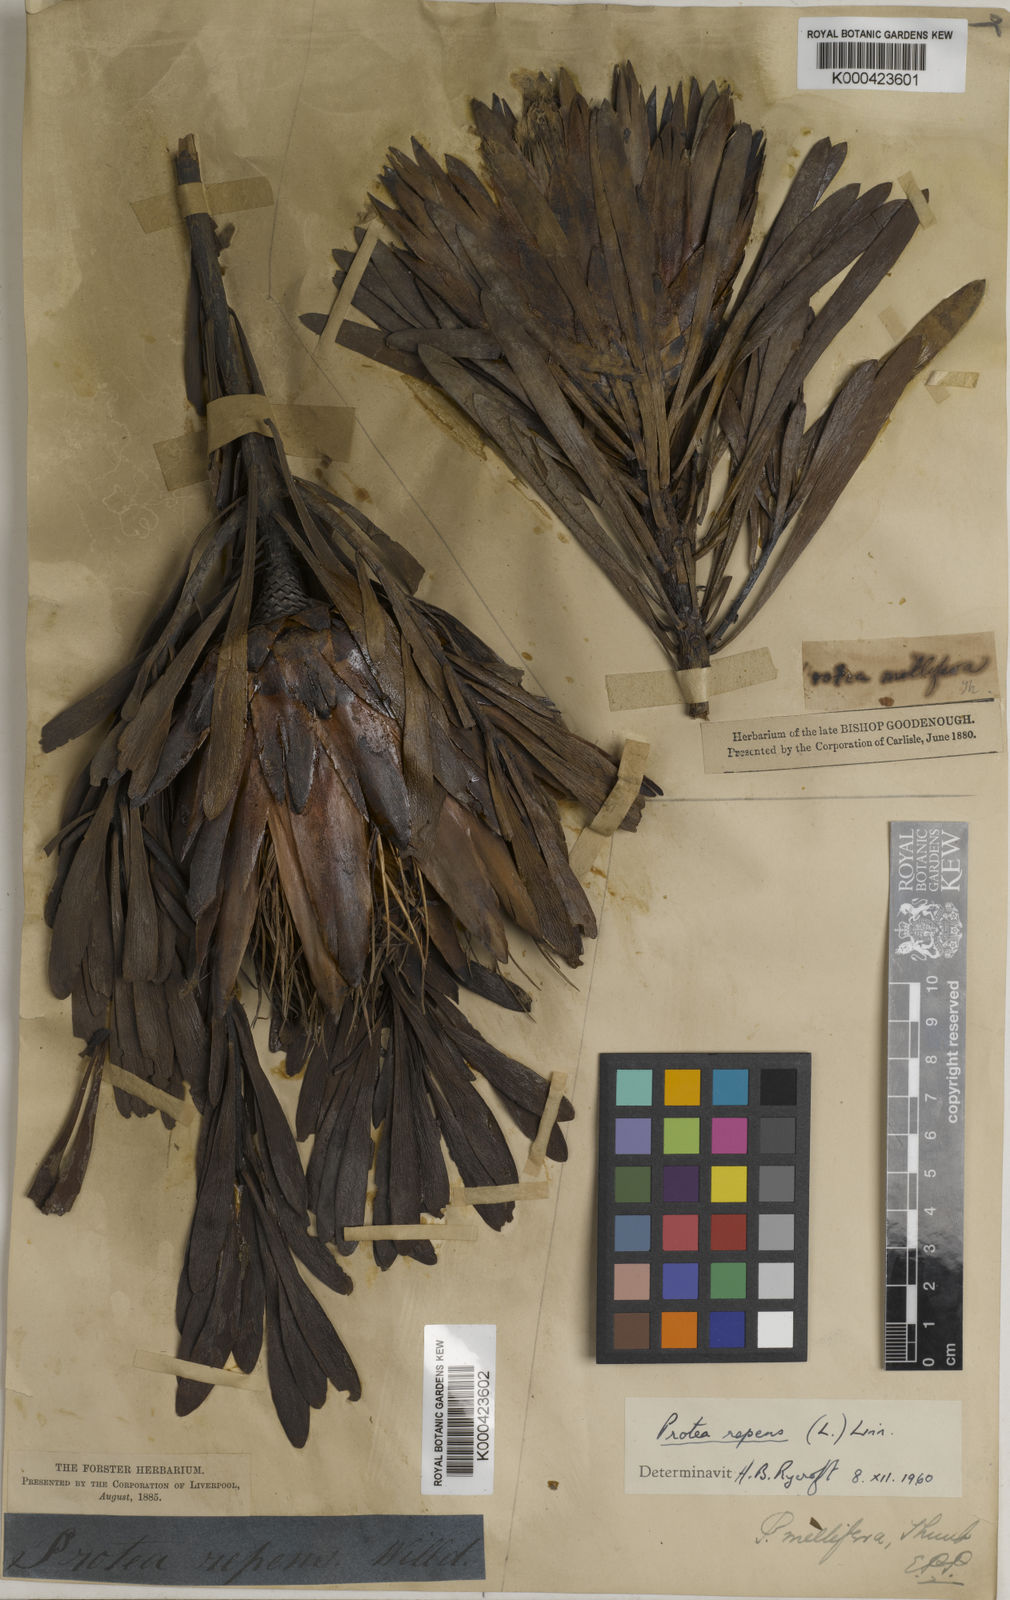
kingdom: Plantae
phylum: Tracheophyta
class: Magnoliopsida
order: Proteales
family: Proteaceae
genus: Protea
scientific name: Protea repens
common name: Sugarbush
